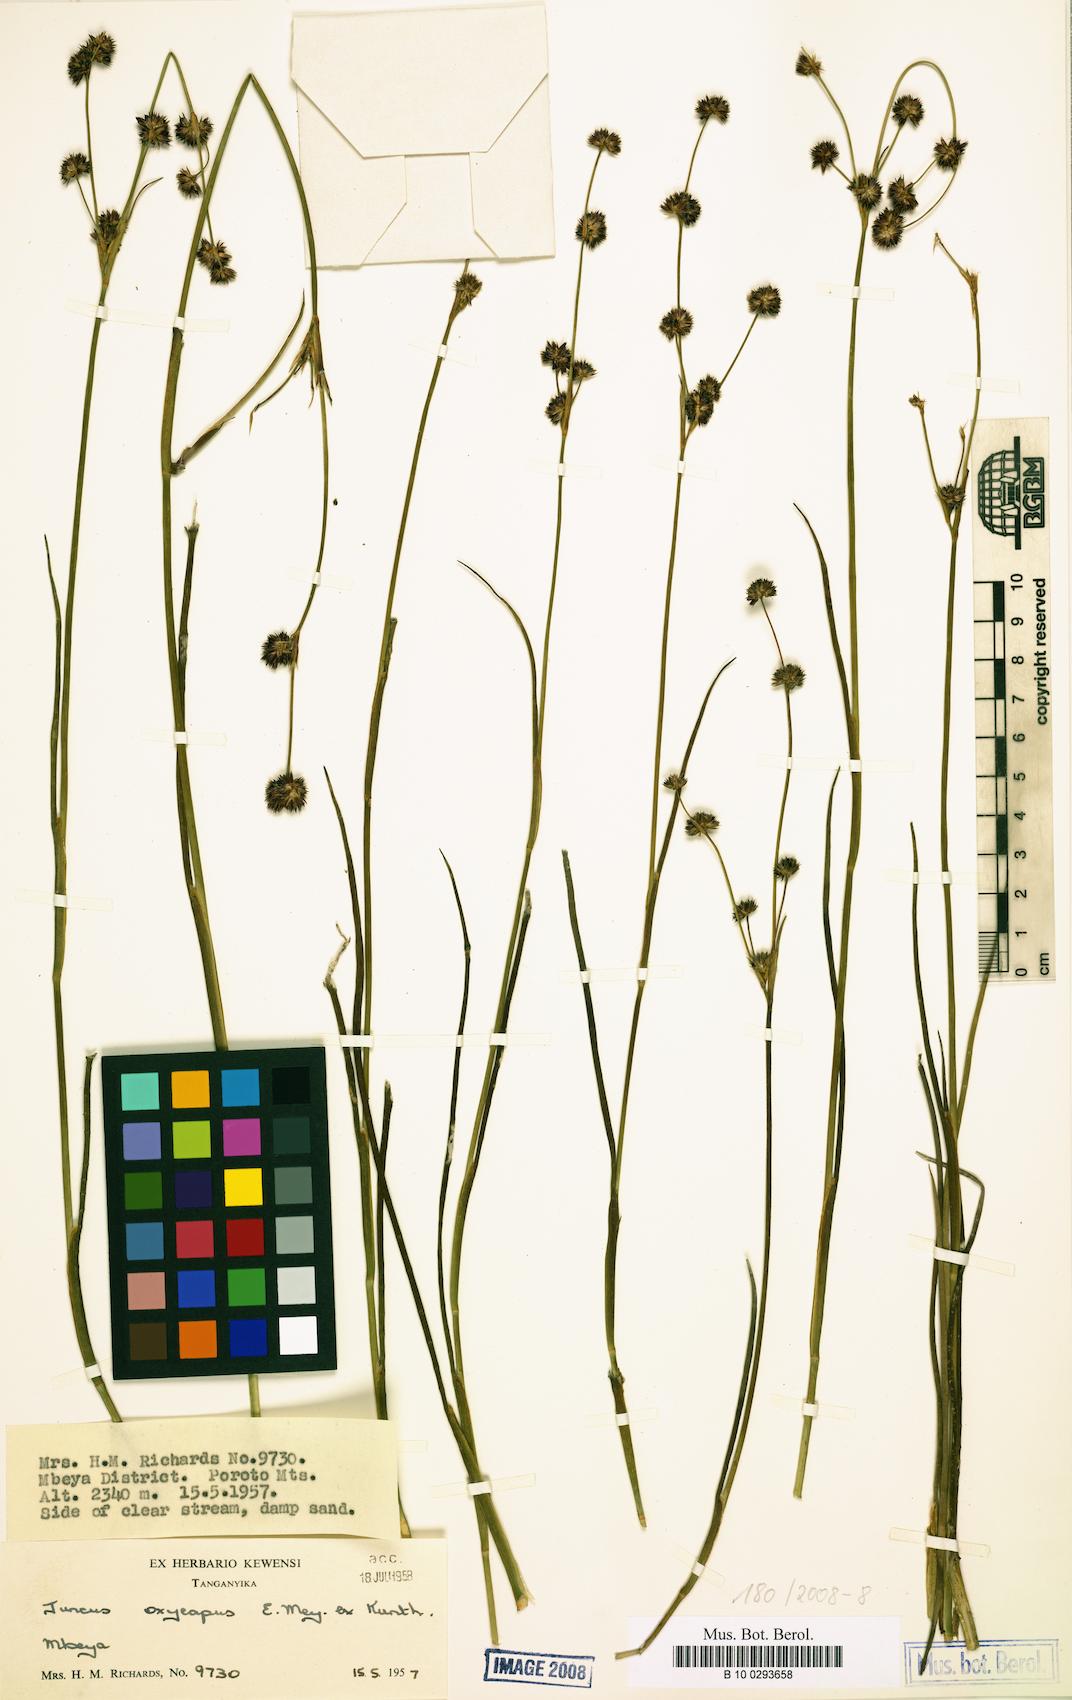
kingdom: Plantae
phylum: Tracheophyta
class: Liliopsida
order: Poales
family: Juncaceae
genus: Juncus
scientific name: Juncus oxycarpus
